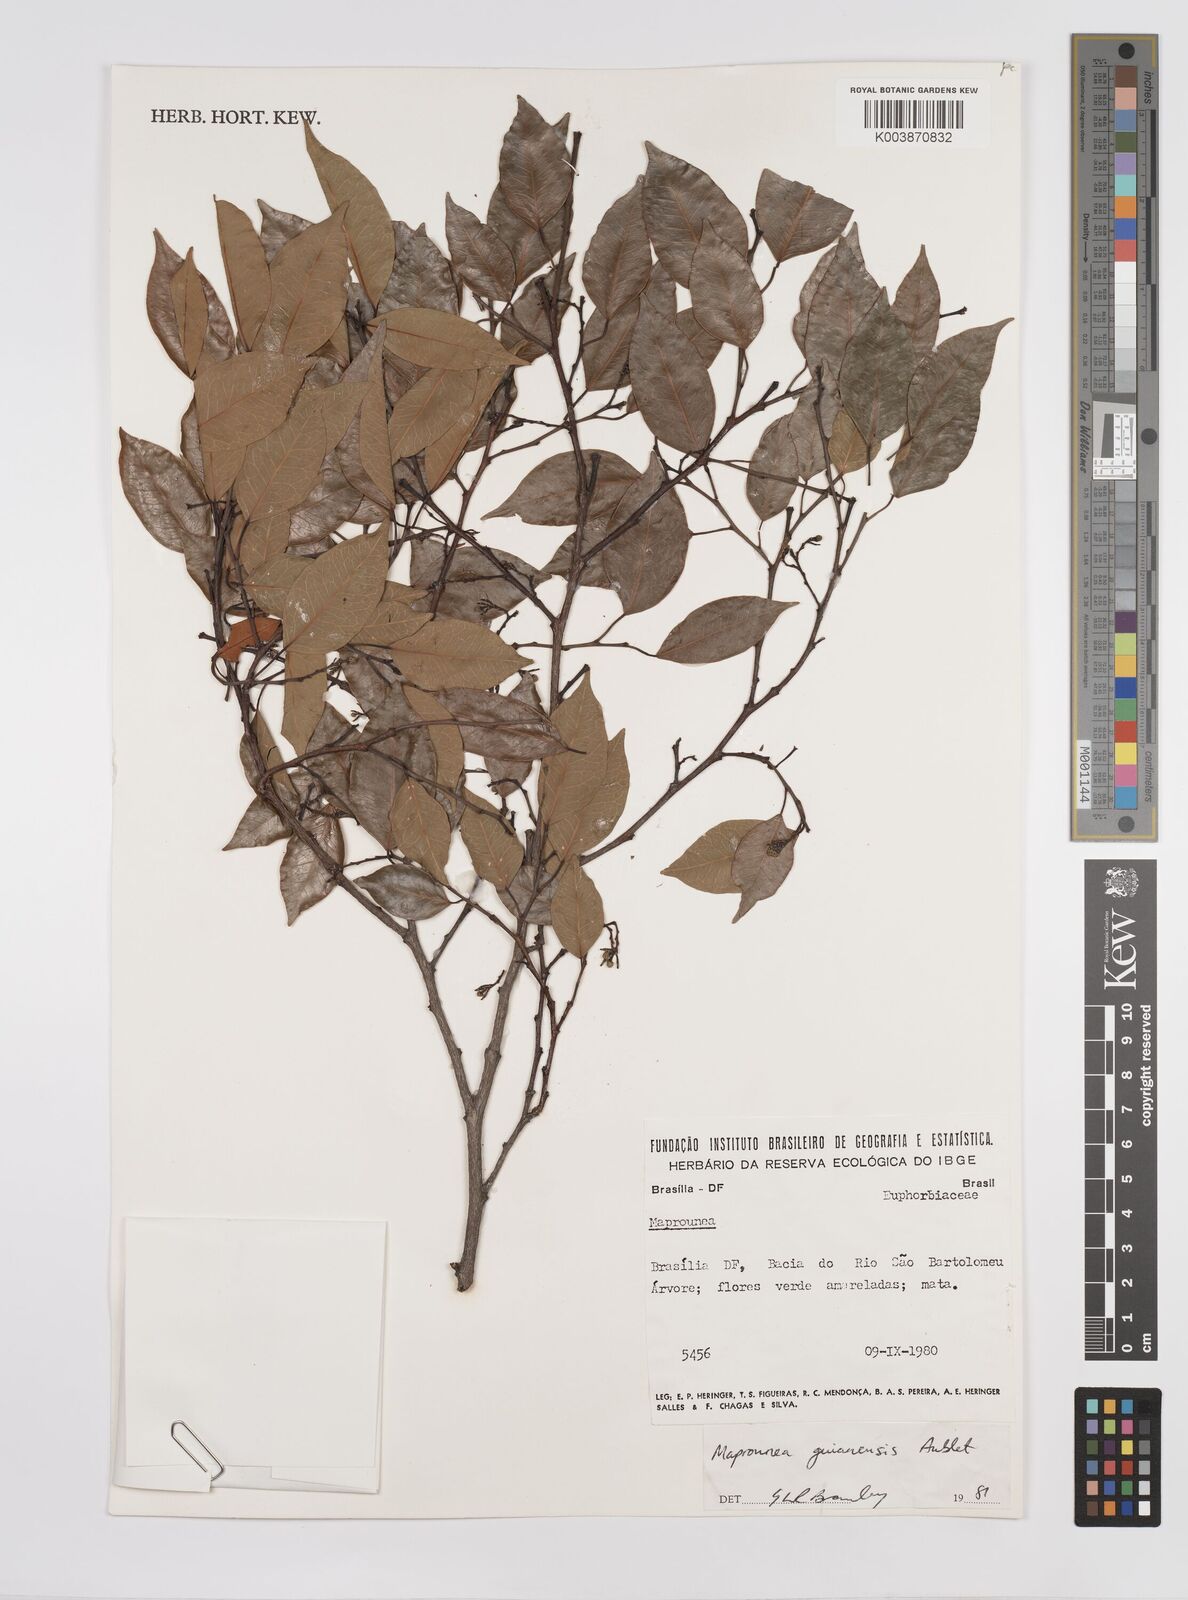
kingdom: Plantae
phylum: Tracheophyta
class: Magnoliopsida
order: Malpighiales
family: Euphorbiaceae
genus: Maprounea
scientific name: Maprounea guianensis
